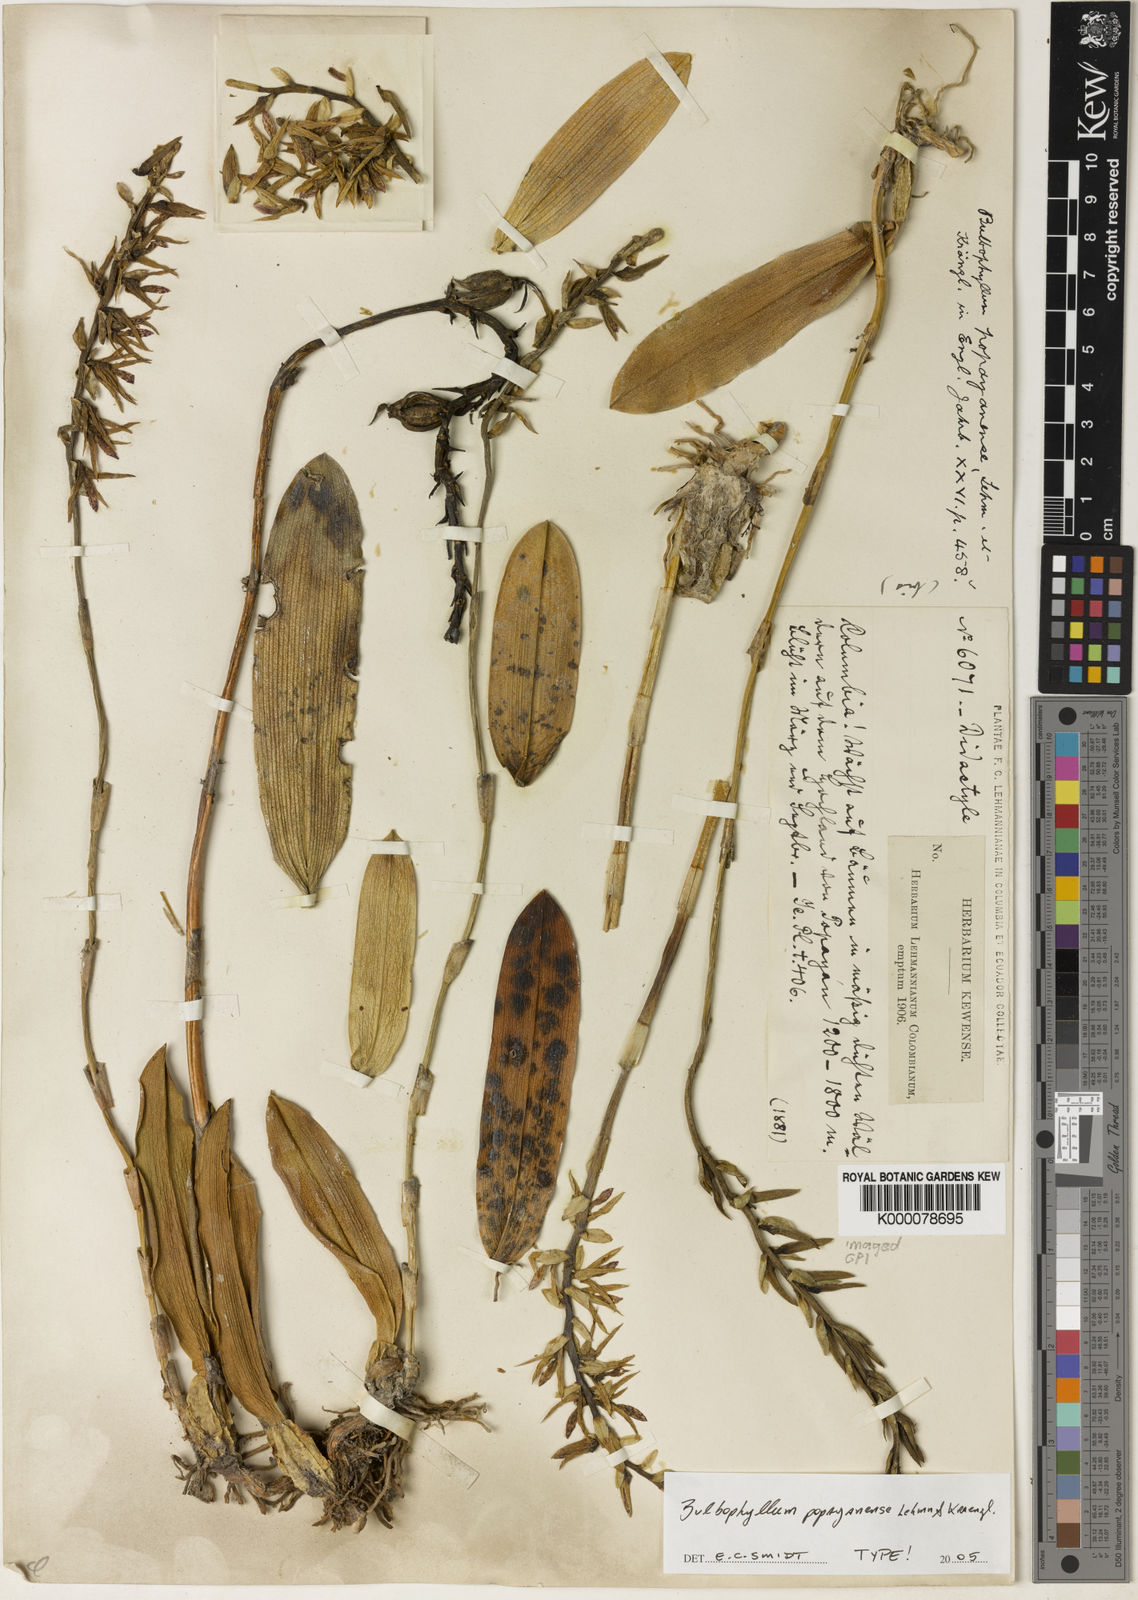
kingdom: Plantae
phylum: Tracheophyta
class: Liliopsida
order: Asparagales
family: Orchidaceae
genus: Bulbophyllum
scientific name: Bulbophyllum popayanense
